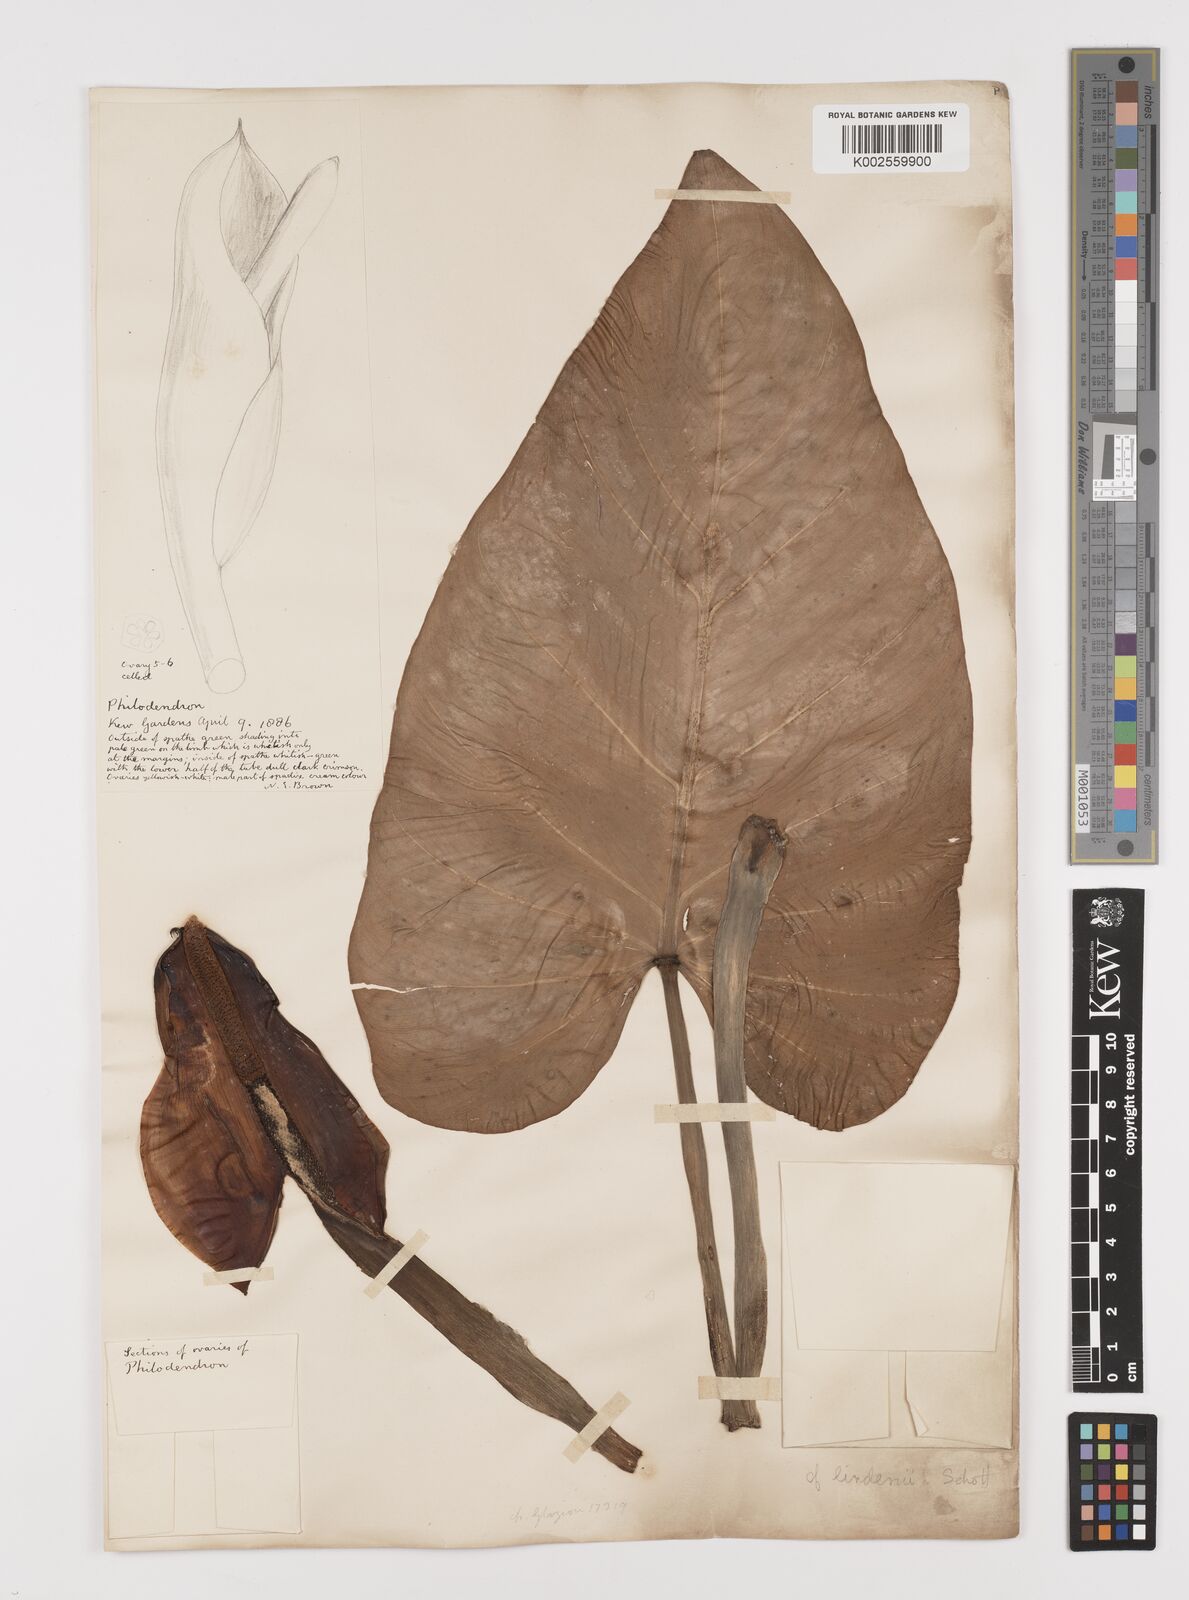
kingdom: Plantae
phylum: Tracheophyta
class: Liliopsida
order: Alismatales
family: Araceae
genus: Philodendron
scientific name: Philodendron
